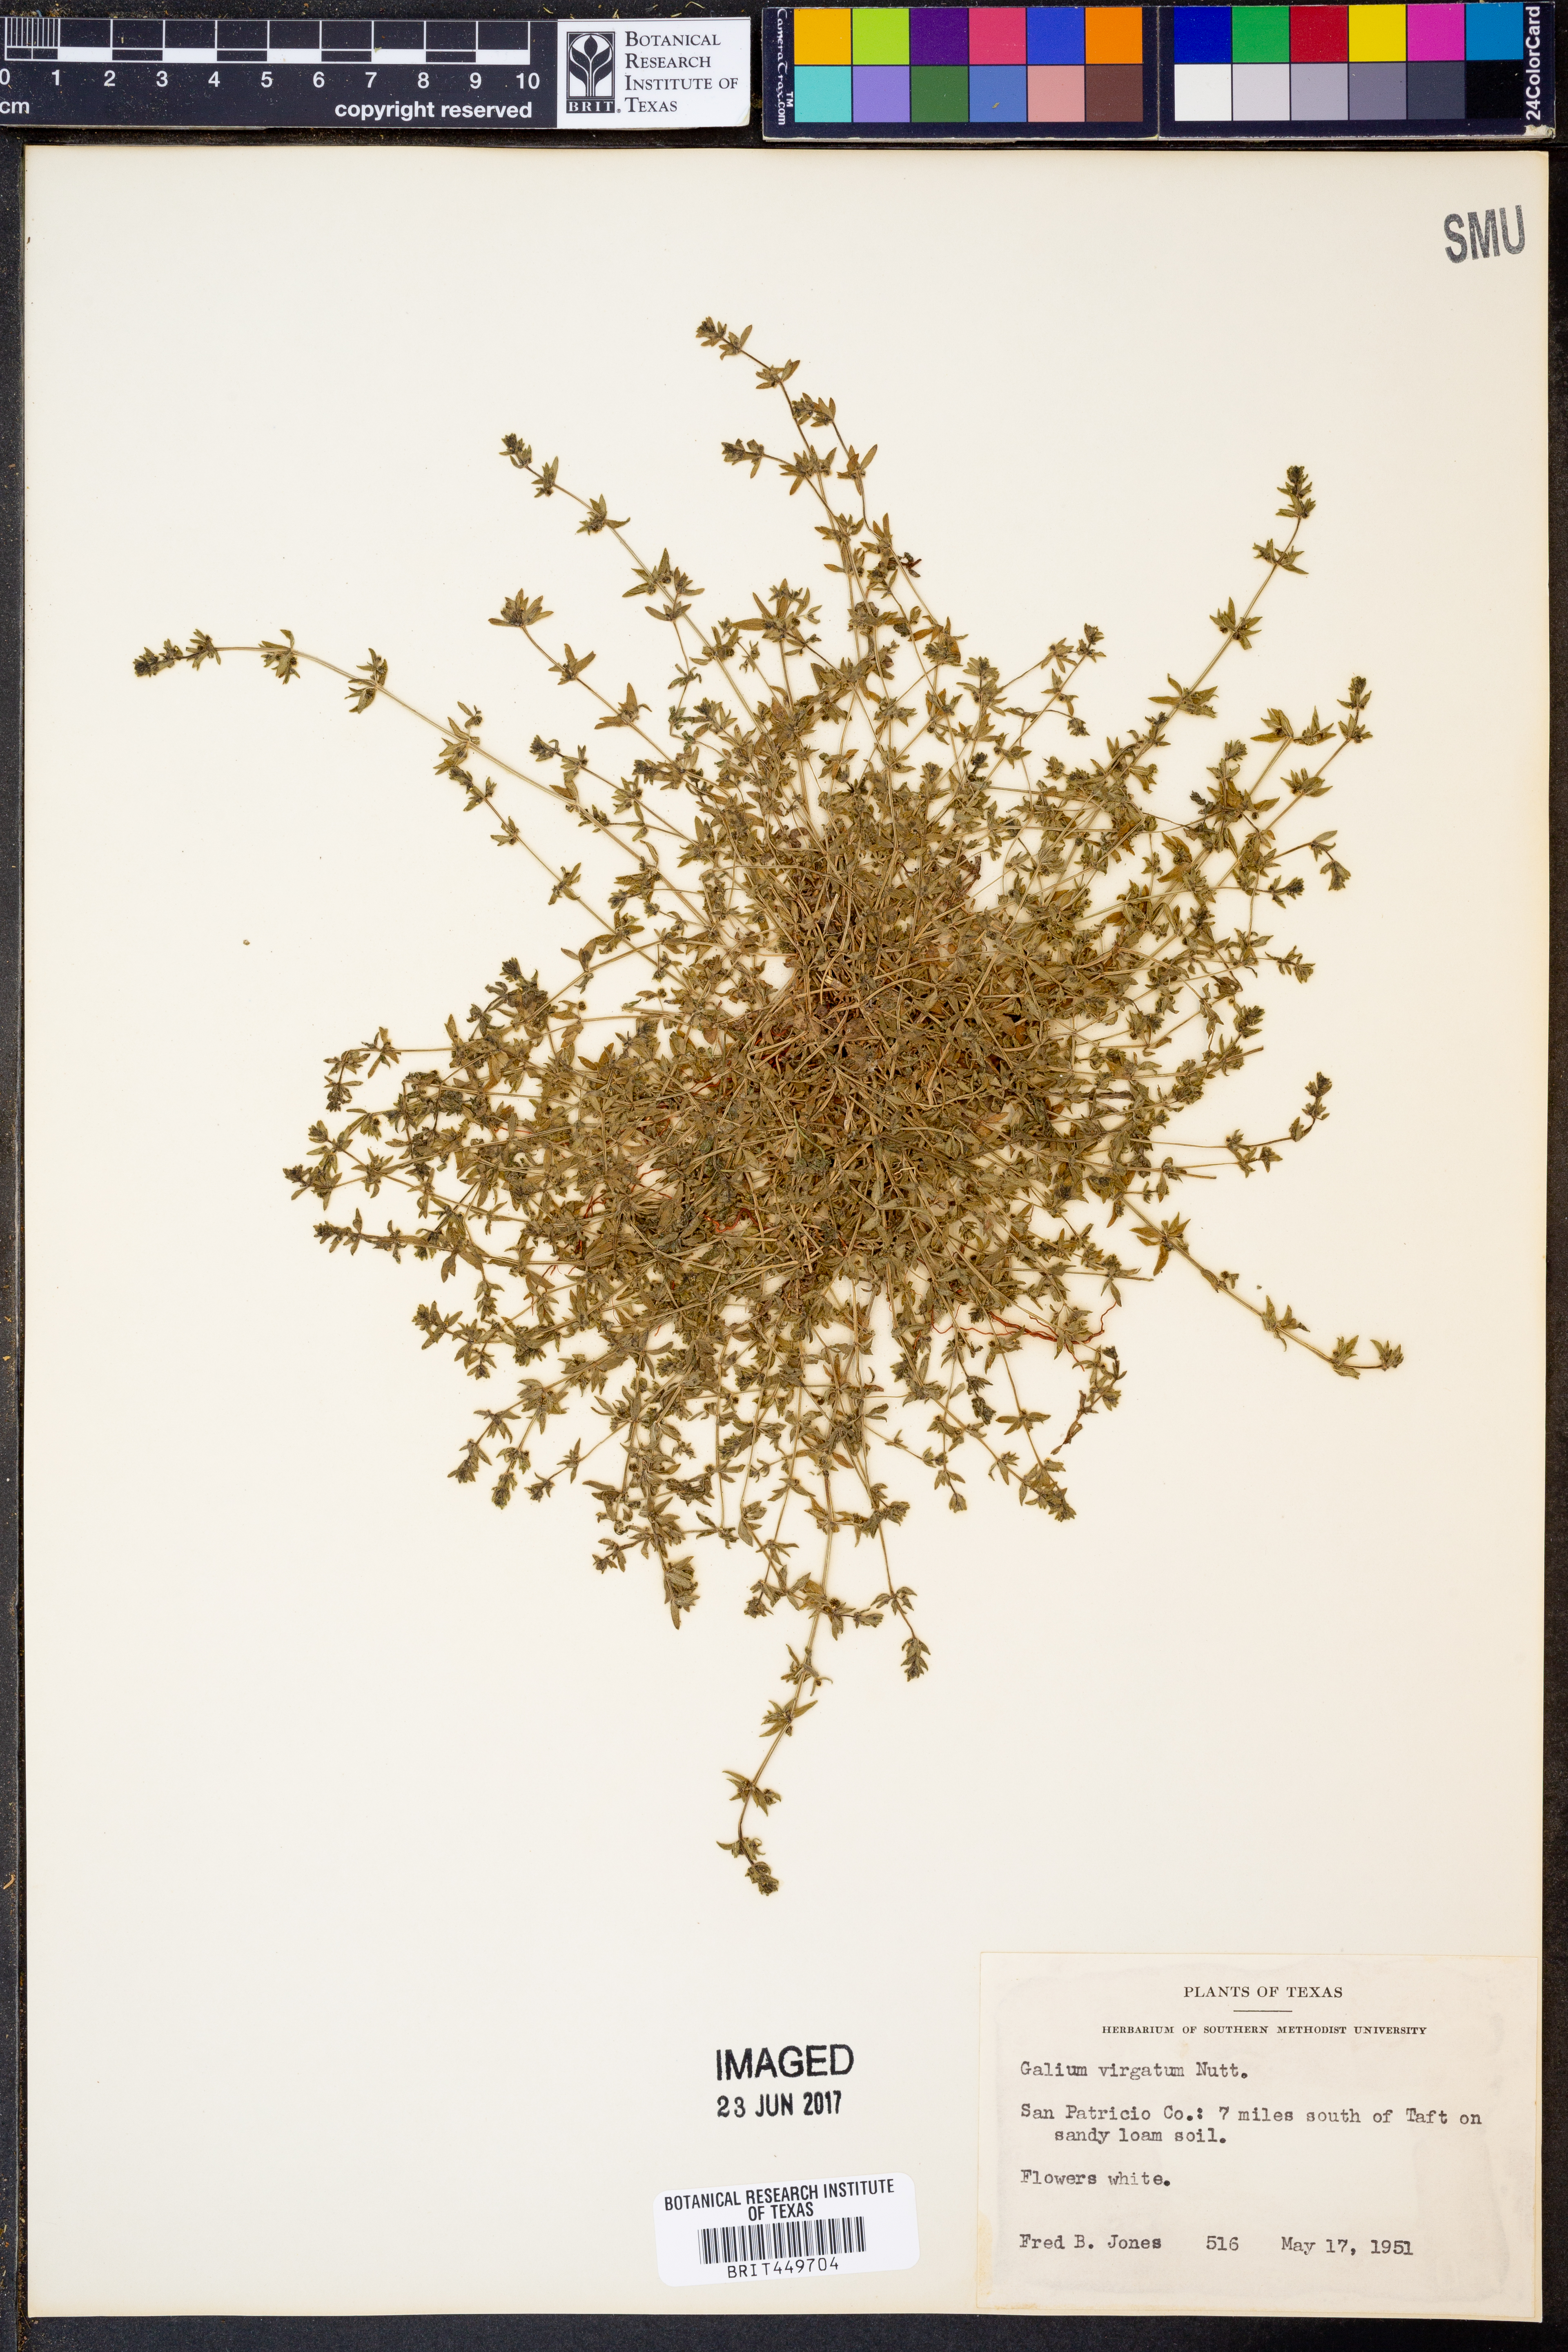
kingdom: Plantae
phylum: Tracheophyta
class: Magnoliopsida
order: Gentianales
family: Rubiaceae
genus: Galium
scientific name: Galium virgatum
